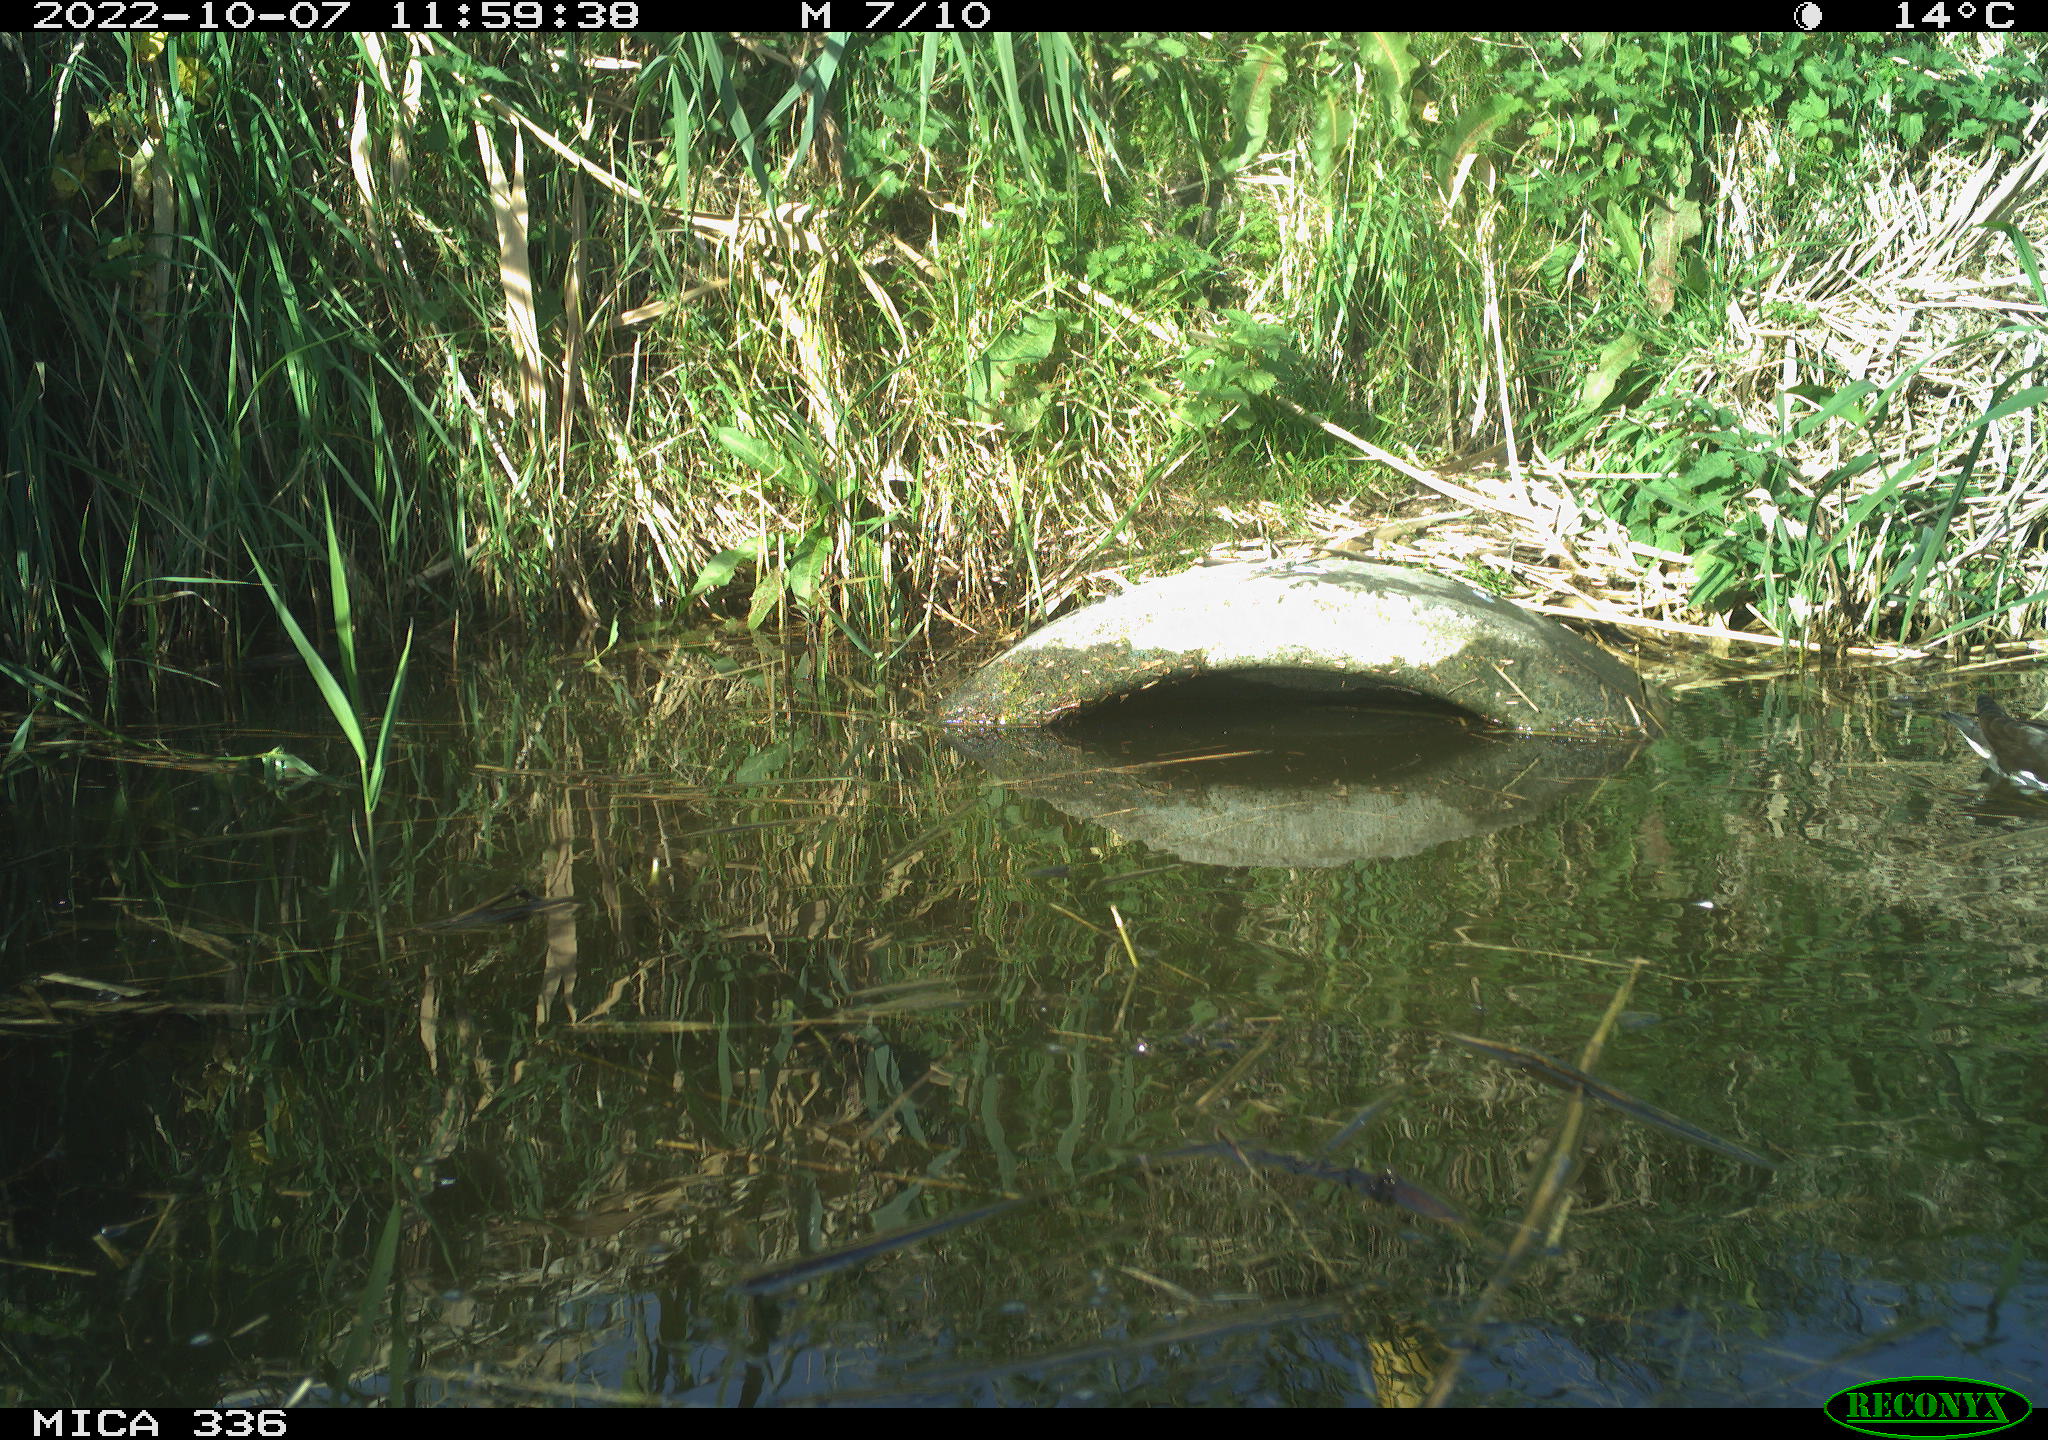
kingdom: Animalia
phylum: Chordata
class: Aves
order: Gruiformes
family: Rallidae
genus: Gallinula
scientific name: Gallinula chloropus
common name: Common moorhen
